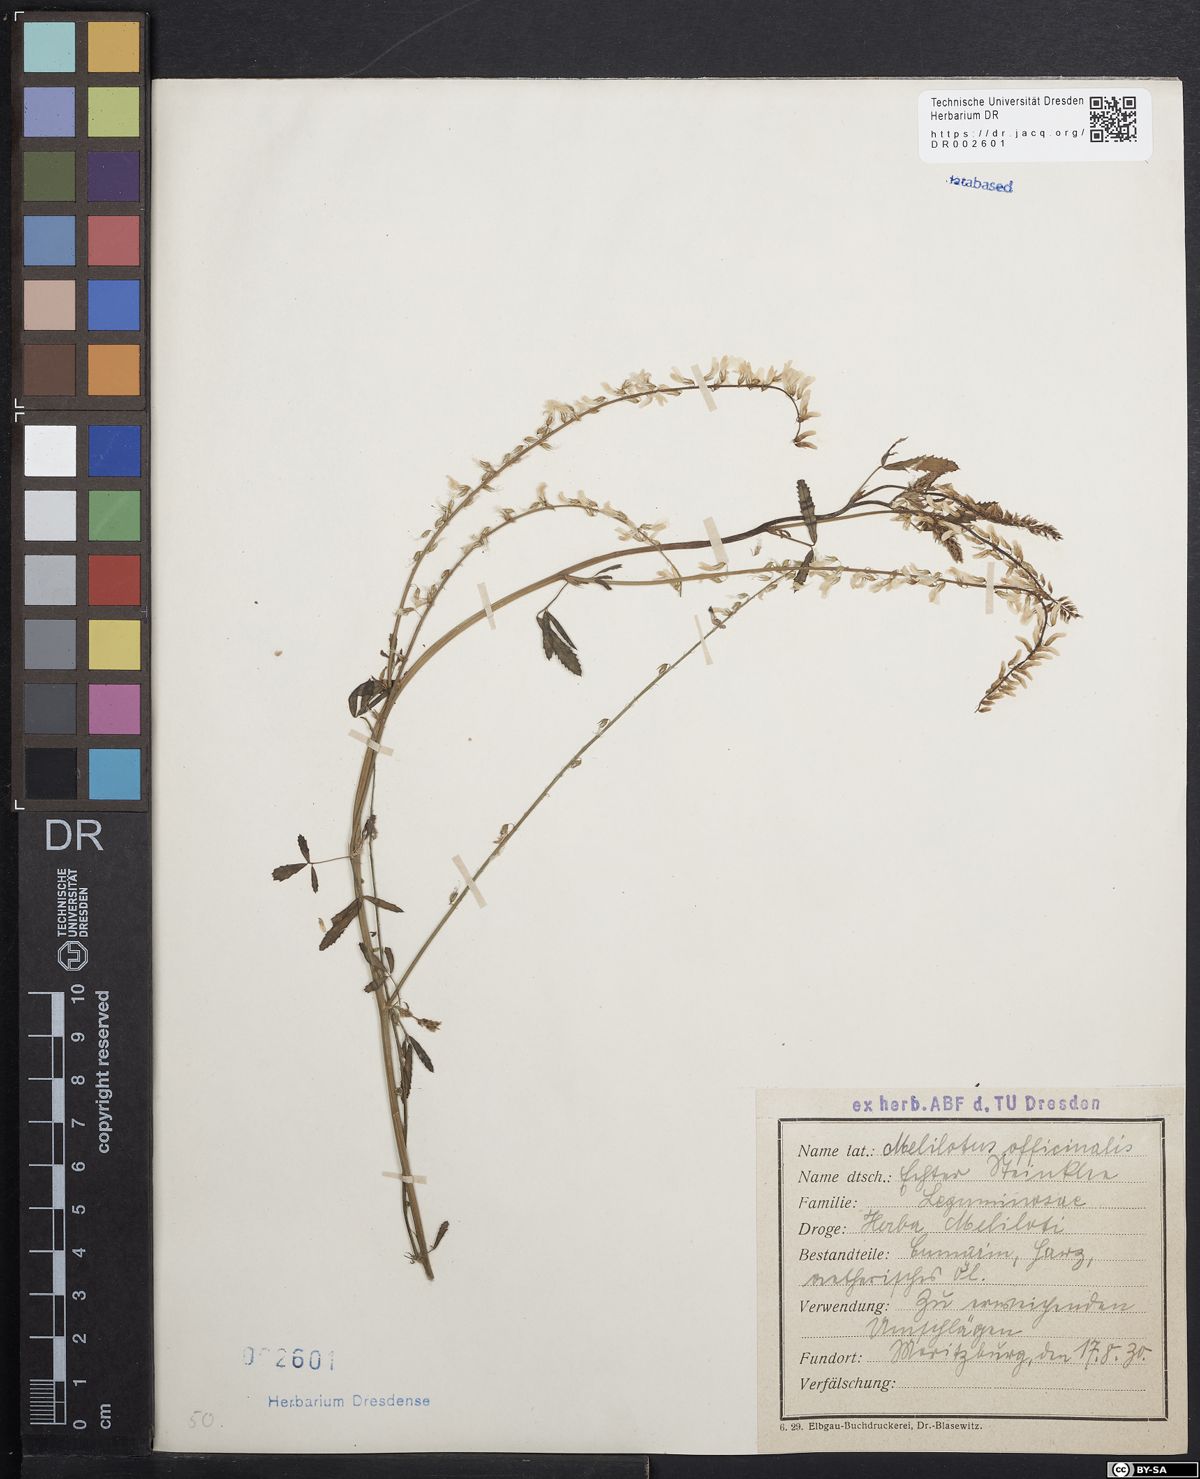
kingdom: Plantae
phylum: Tracheophyta
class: Magnoliopsida
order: Fabales
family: Fabaceae
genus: Melilotus
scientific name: Melilotus officinalis
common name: Sweetclover
